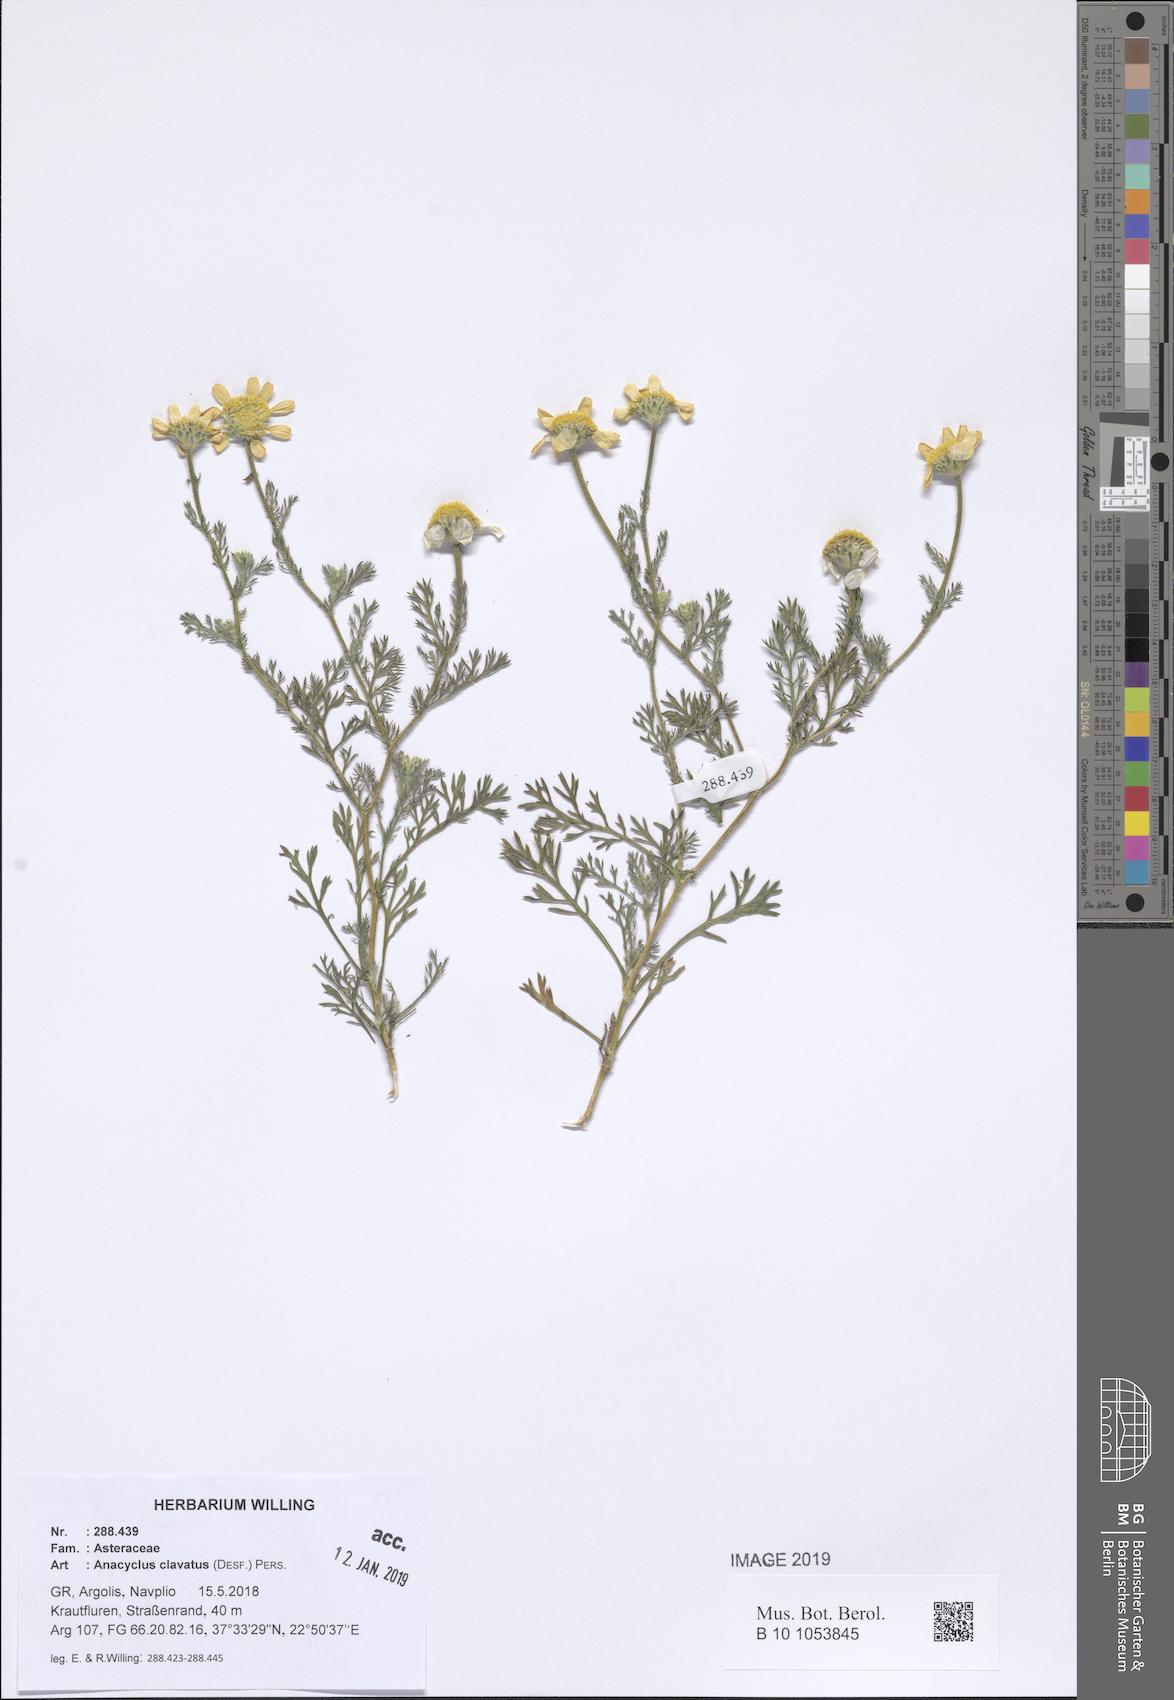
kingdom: Plantae
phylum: Tracheophyta
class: Magnoliopsida
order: Asterales
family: Asteraceae
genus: Anacyclus
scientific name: Anacyclus clavatus
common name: Whitebuttons
